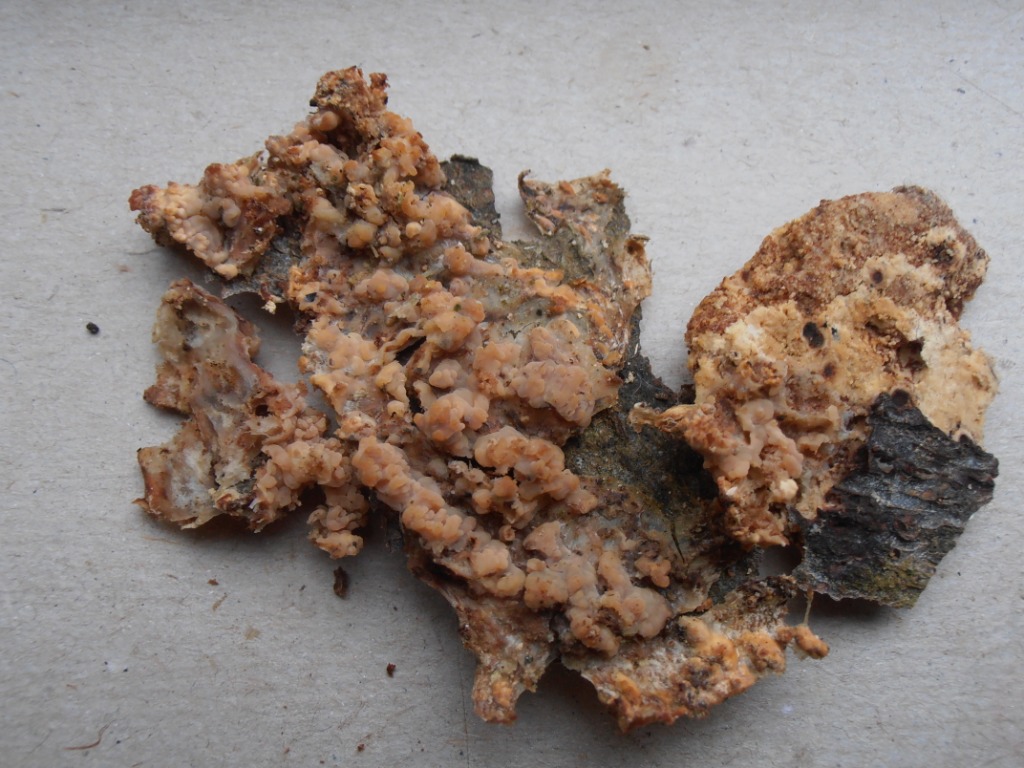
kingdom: Fungi
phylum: Basidiomycota
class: Agaricomycetes
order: Polyporales
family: Meruliaceae
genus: Phlebia
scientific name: Phlebia radiata
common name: stråle-åresvamp
